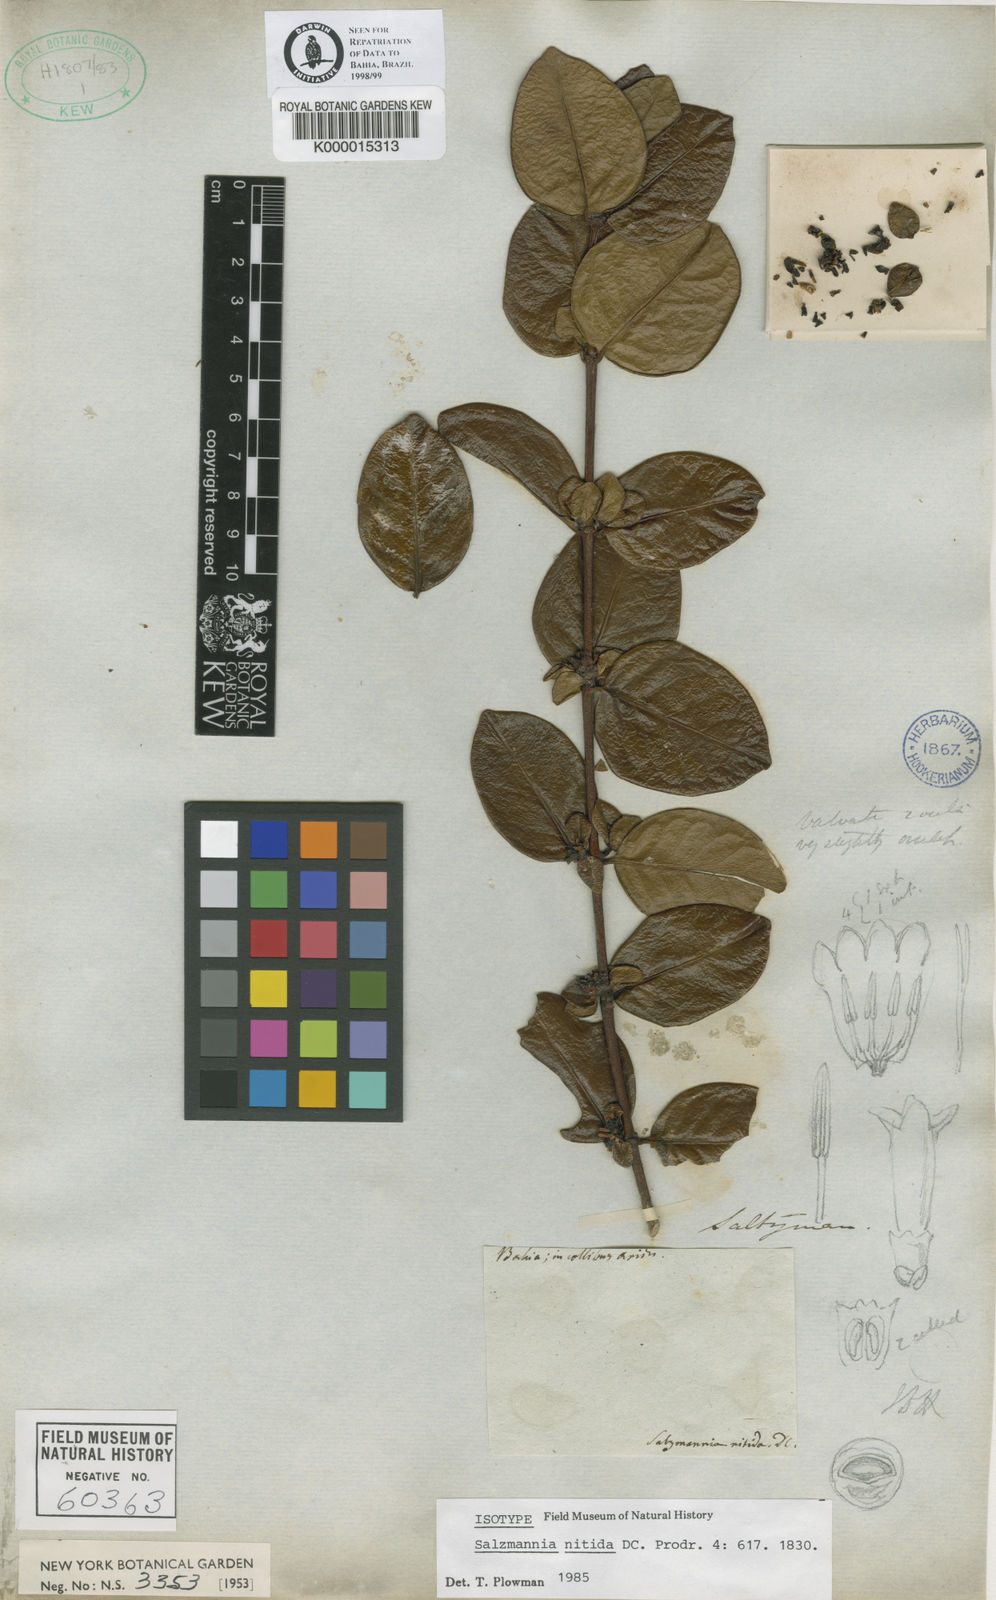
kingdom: Plantae
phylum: Tracheophyta
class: Magnoliopsida
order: Gentianales
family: Rubiaceae
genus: Salzmannia
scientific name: Salzmannia nitida
